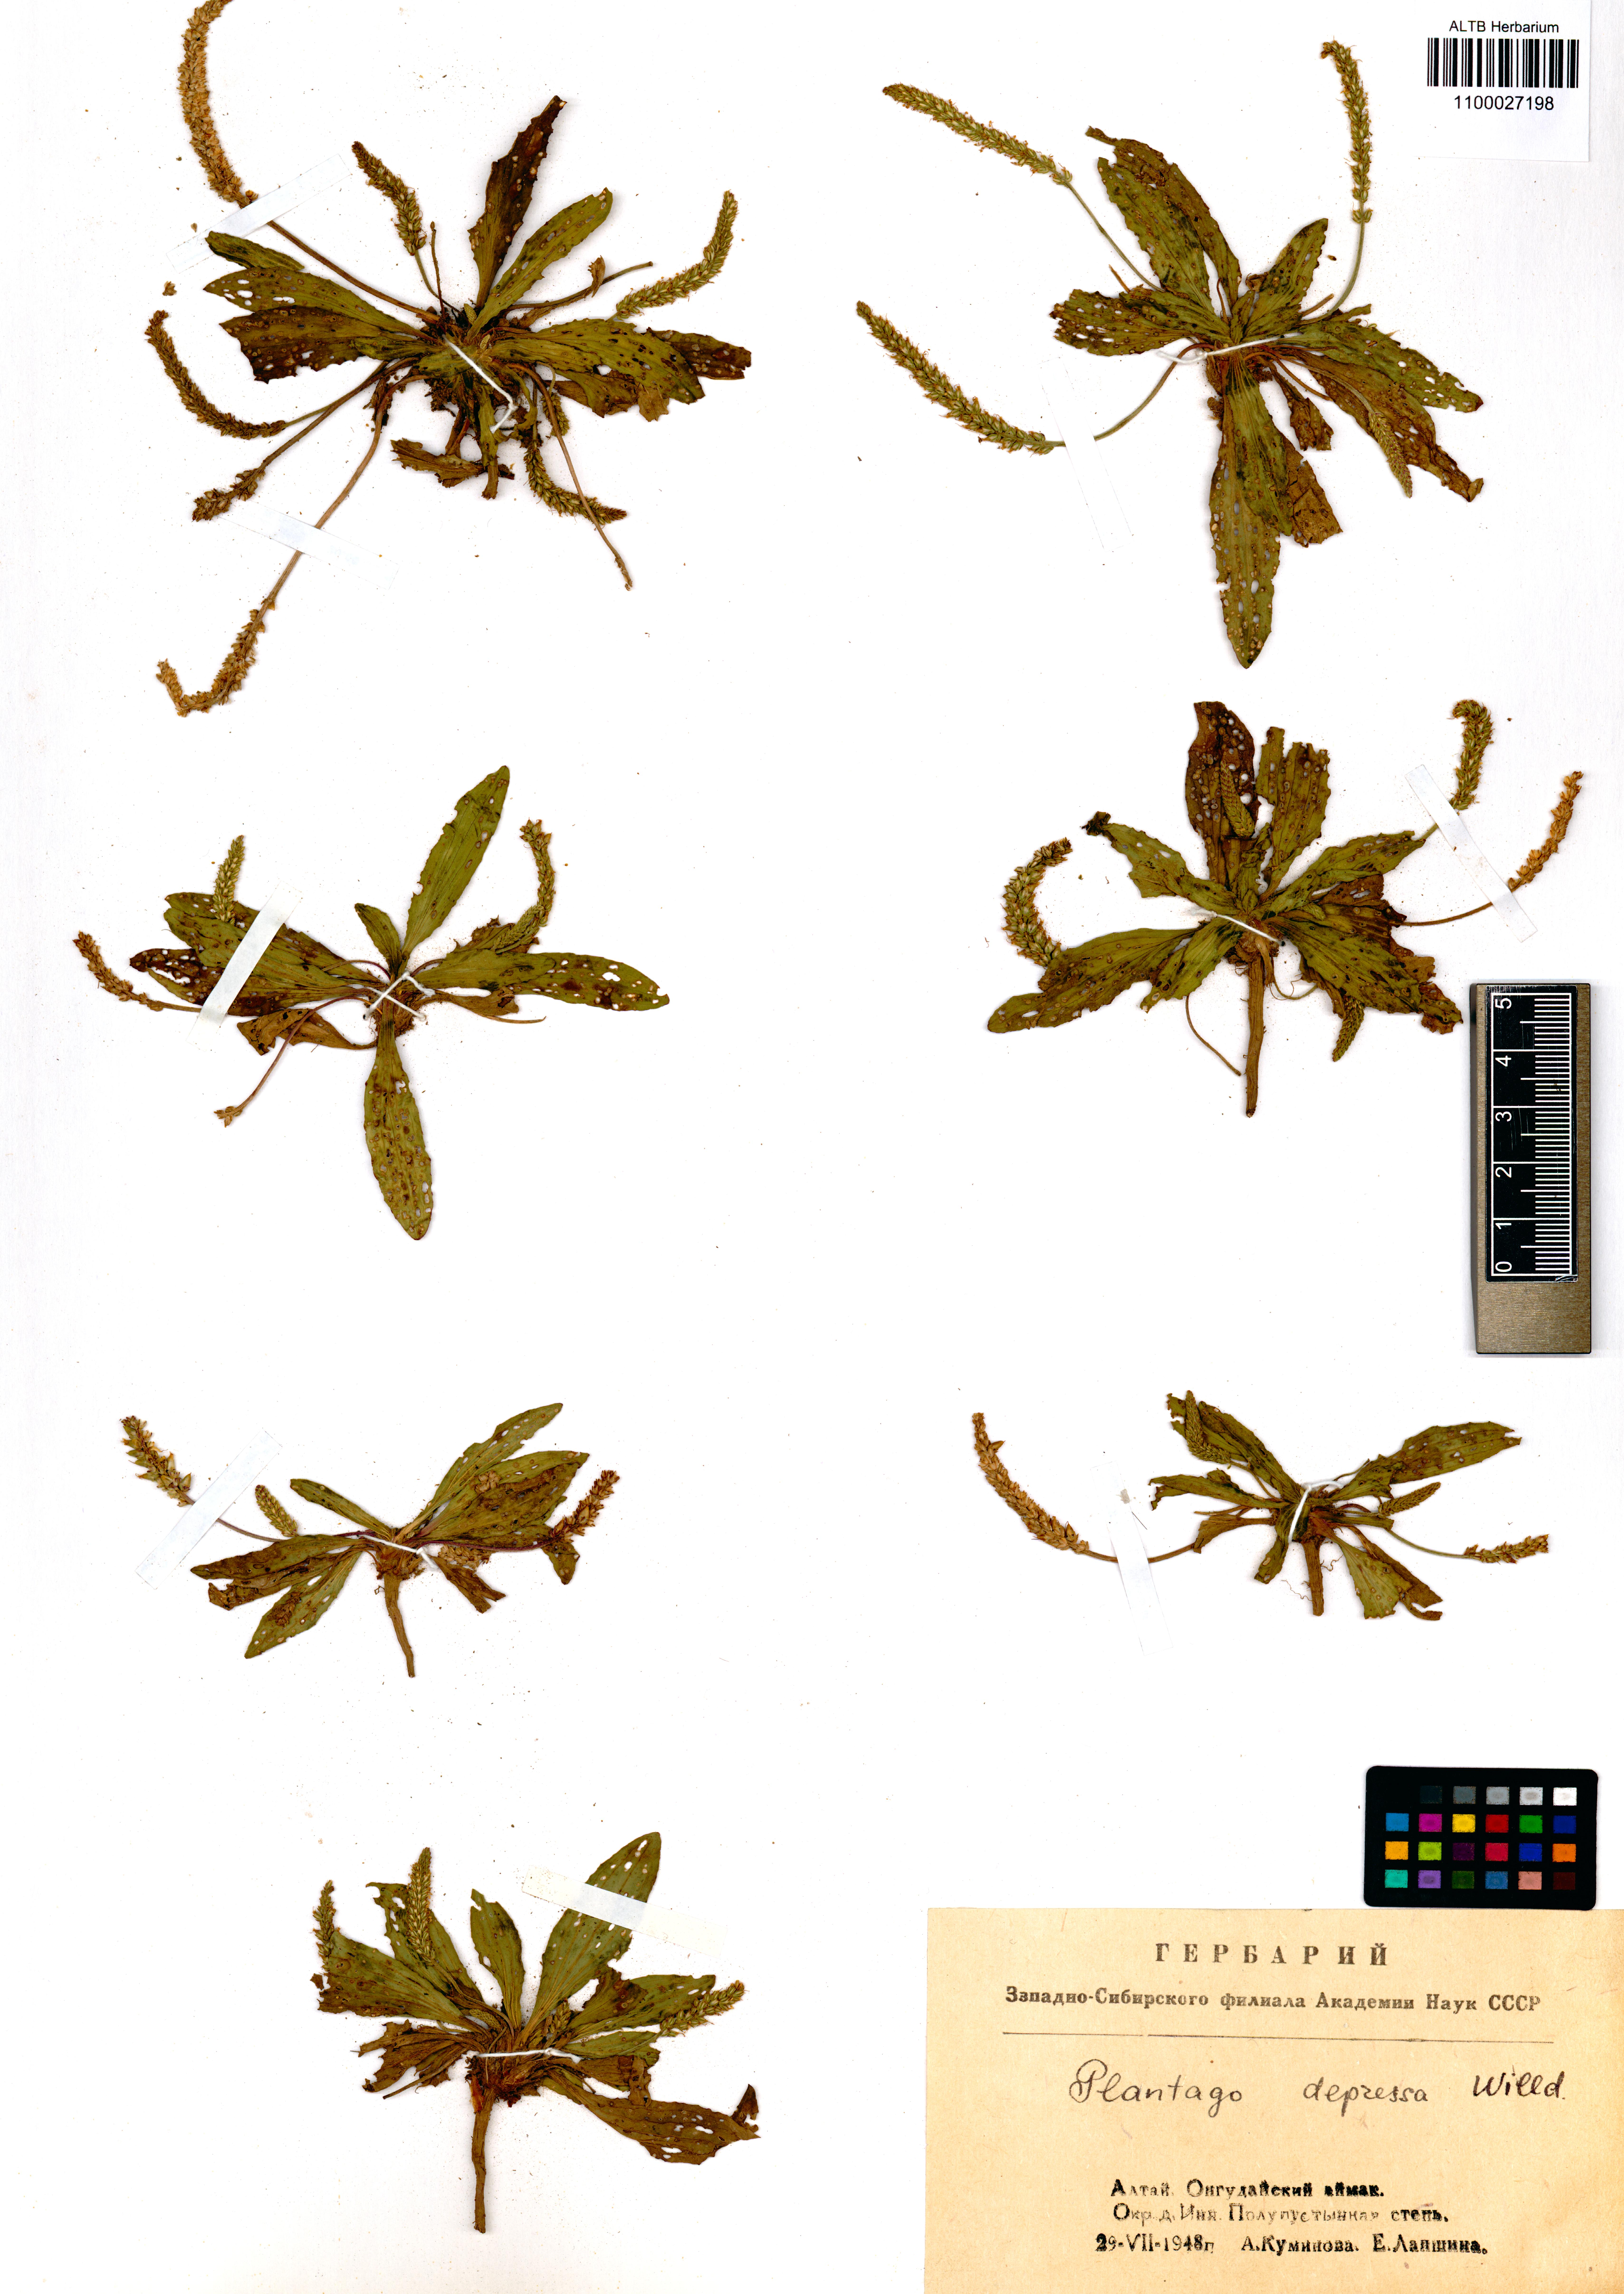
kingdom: Plantae
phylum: Tracheophyta
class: Magnoliopsida
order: Lamiales
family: Plantaginaceae
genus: Plantago
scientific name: Plantago depressa
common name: Depressed plantain
